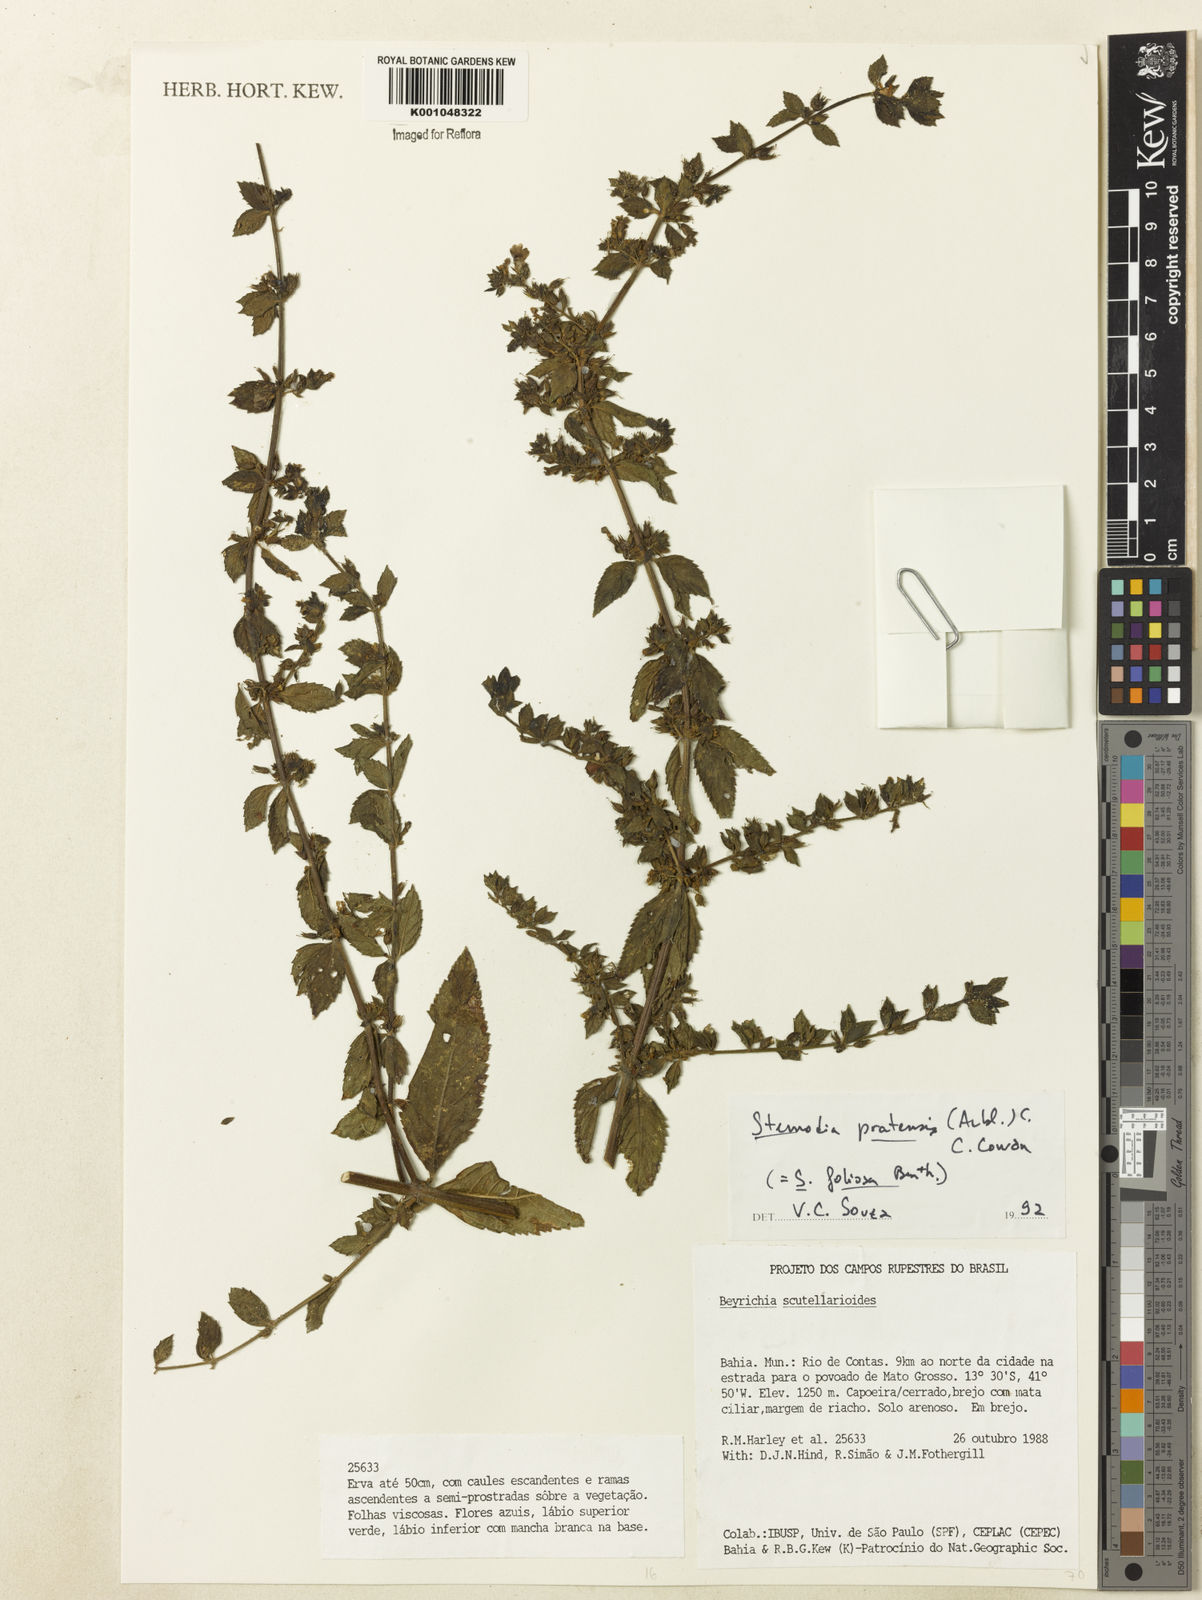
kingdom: Plantae
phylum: Tracheophyta
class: Magnoliopsida
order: Lamiales
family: Plantaginaceae
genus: Stemodia
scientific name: Stemodia foliosa
